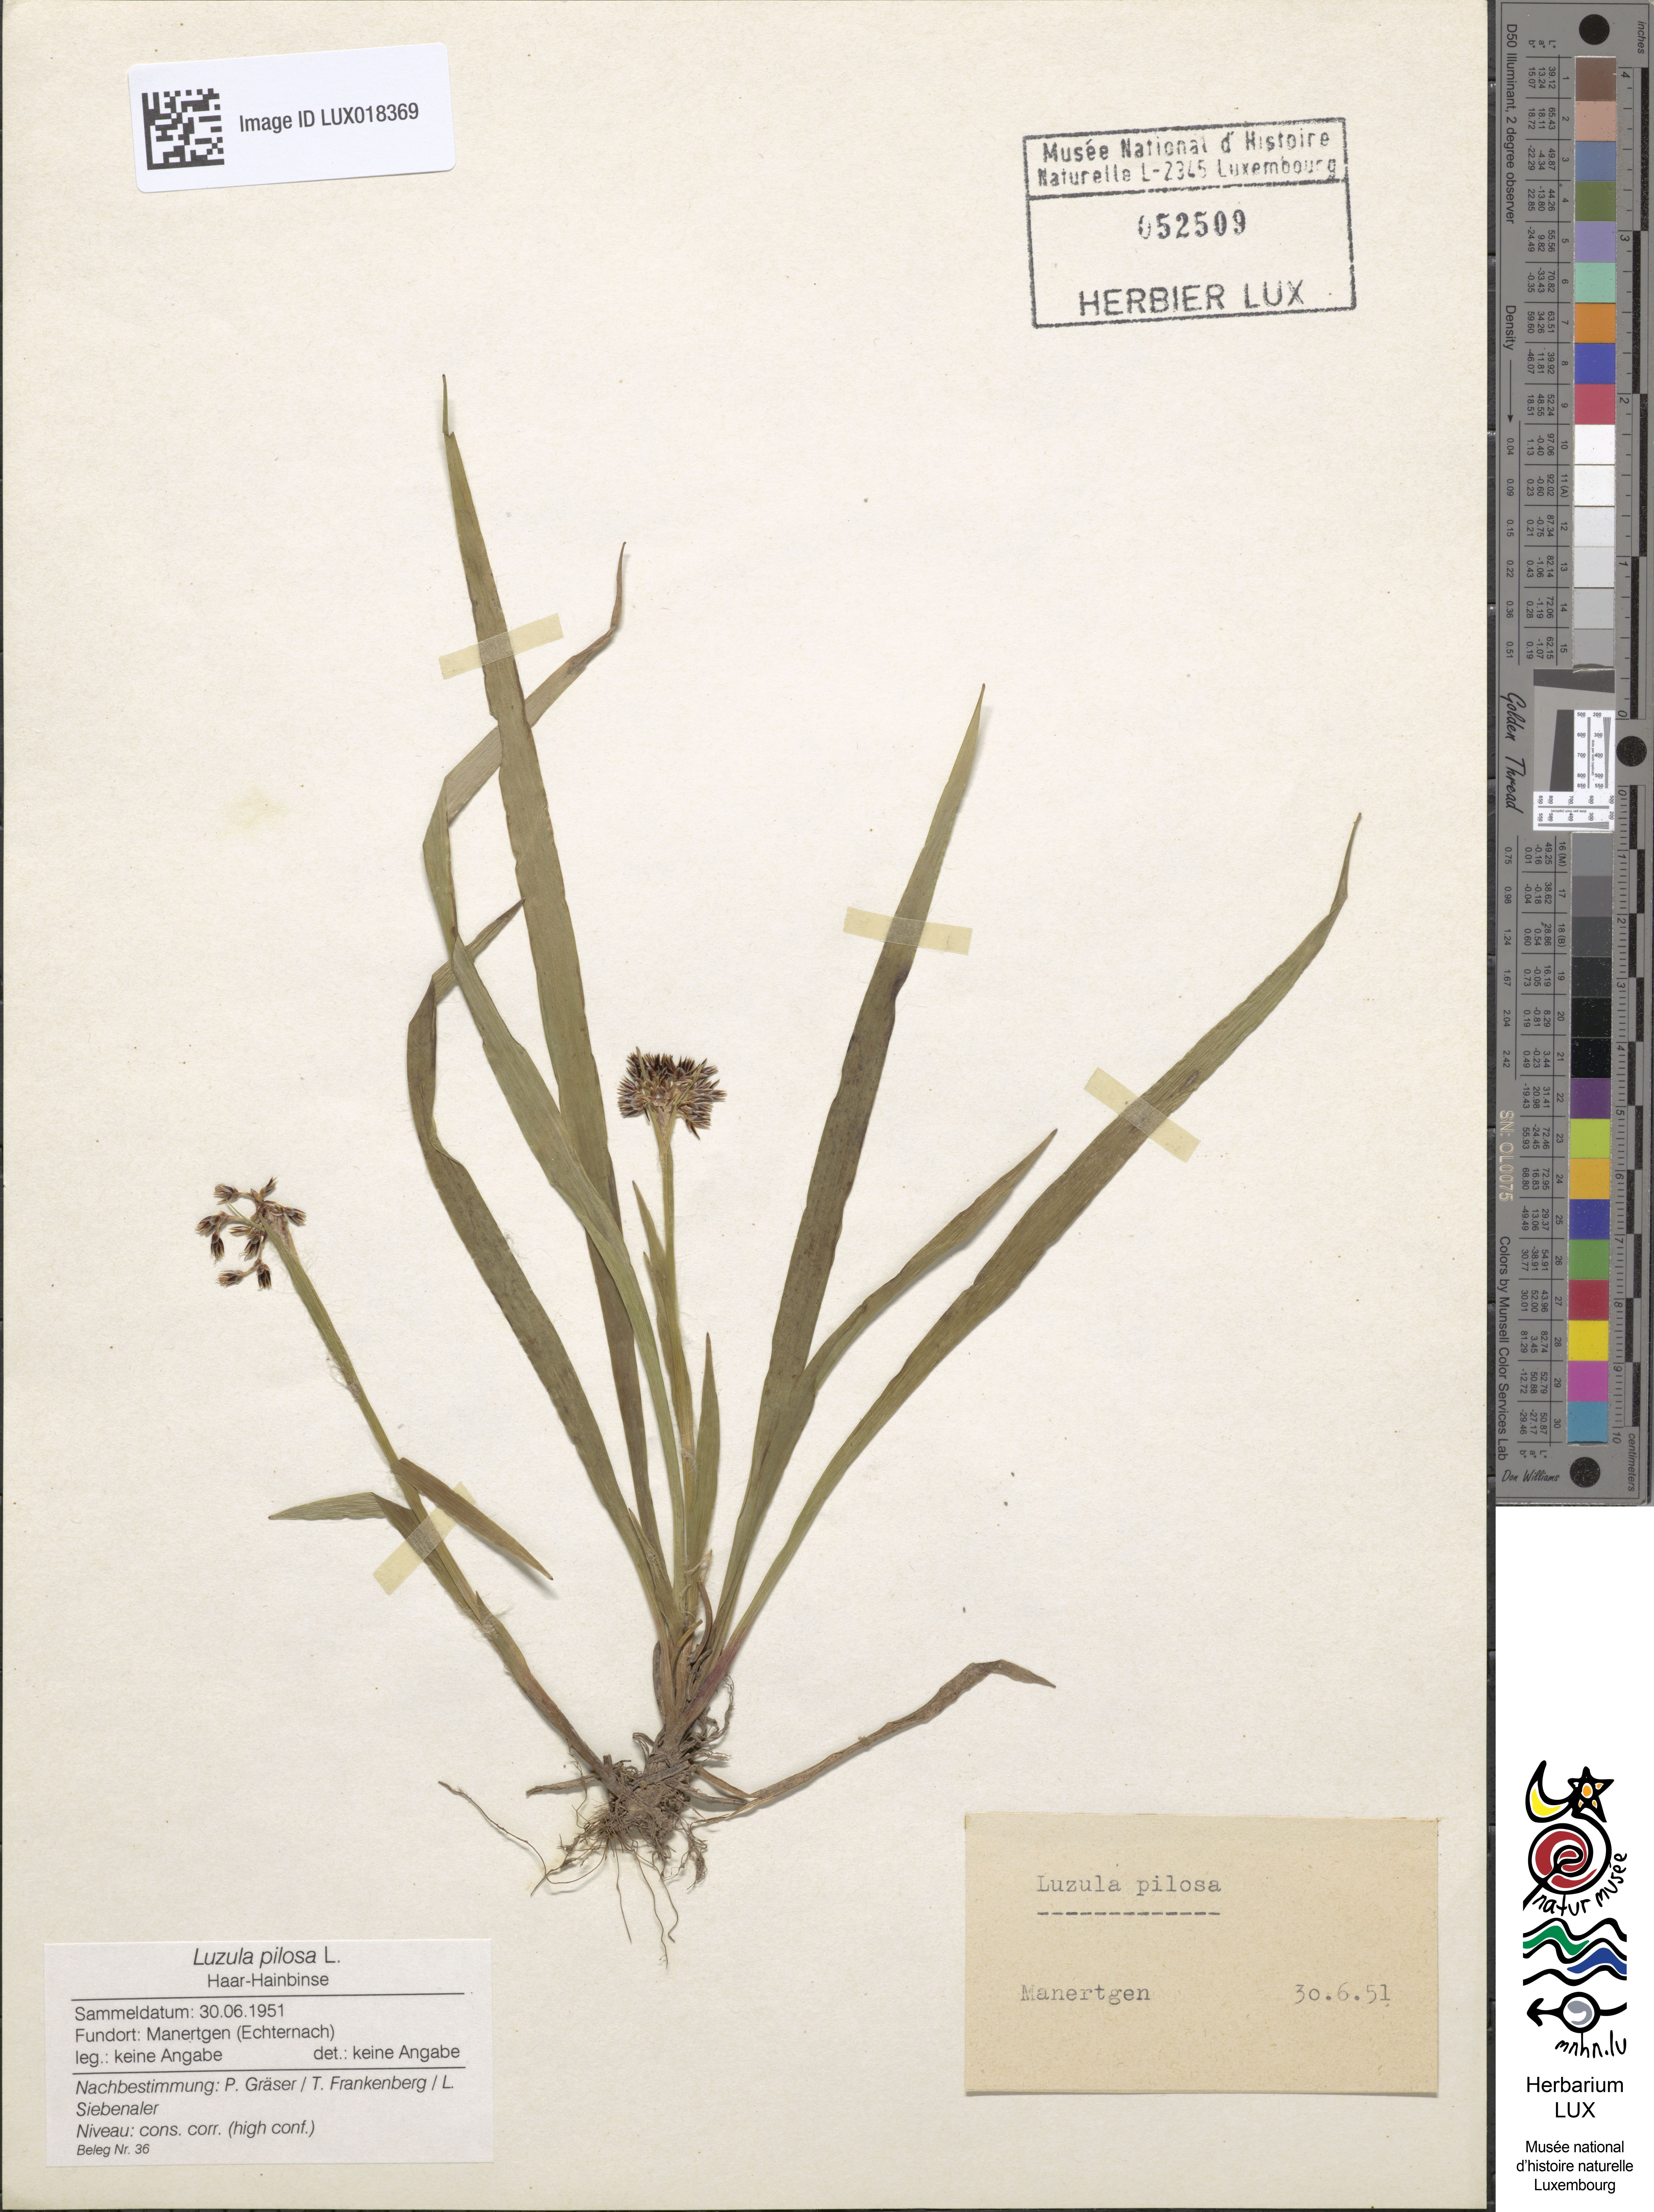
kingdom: Plantae
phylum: Tracheophyta
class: Liliopsida
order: Poales
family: Juncaceae
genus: Luzula
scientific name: Luzula pilosa
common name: Hairy wood-rush
